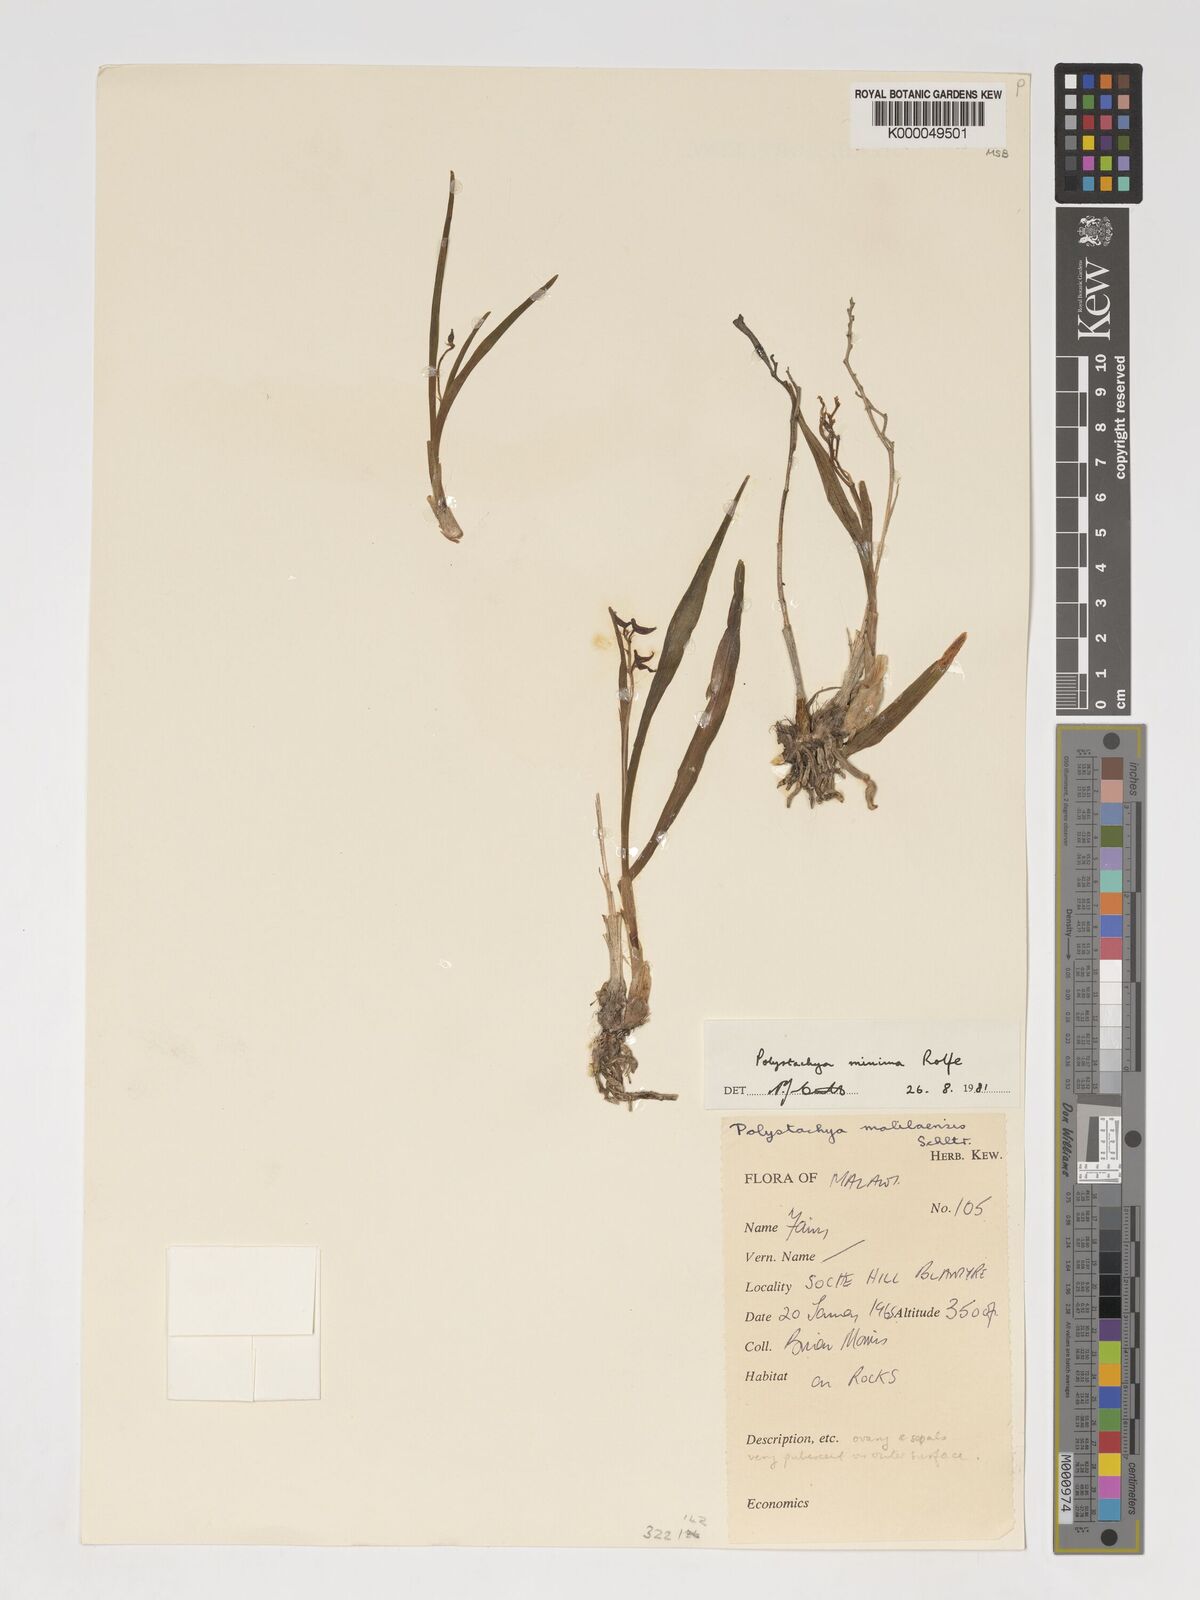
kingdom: Plantae
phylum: Tracheophyta
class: Liliopsida
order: Asparagales
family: Orchidaceae
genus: Polystachya
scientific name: Polystachya minima
